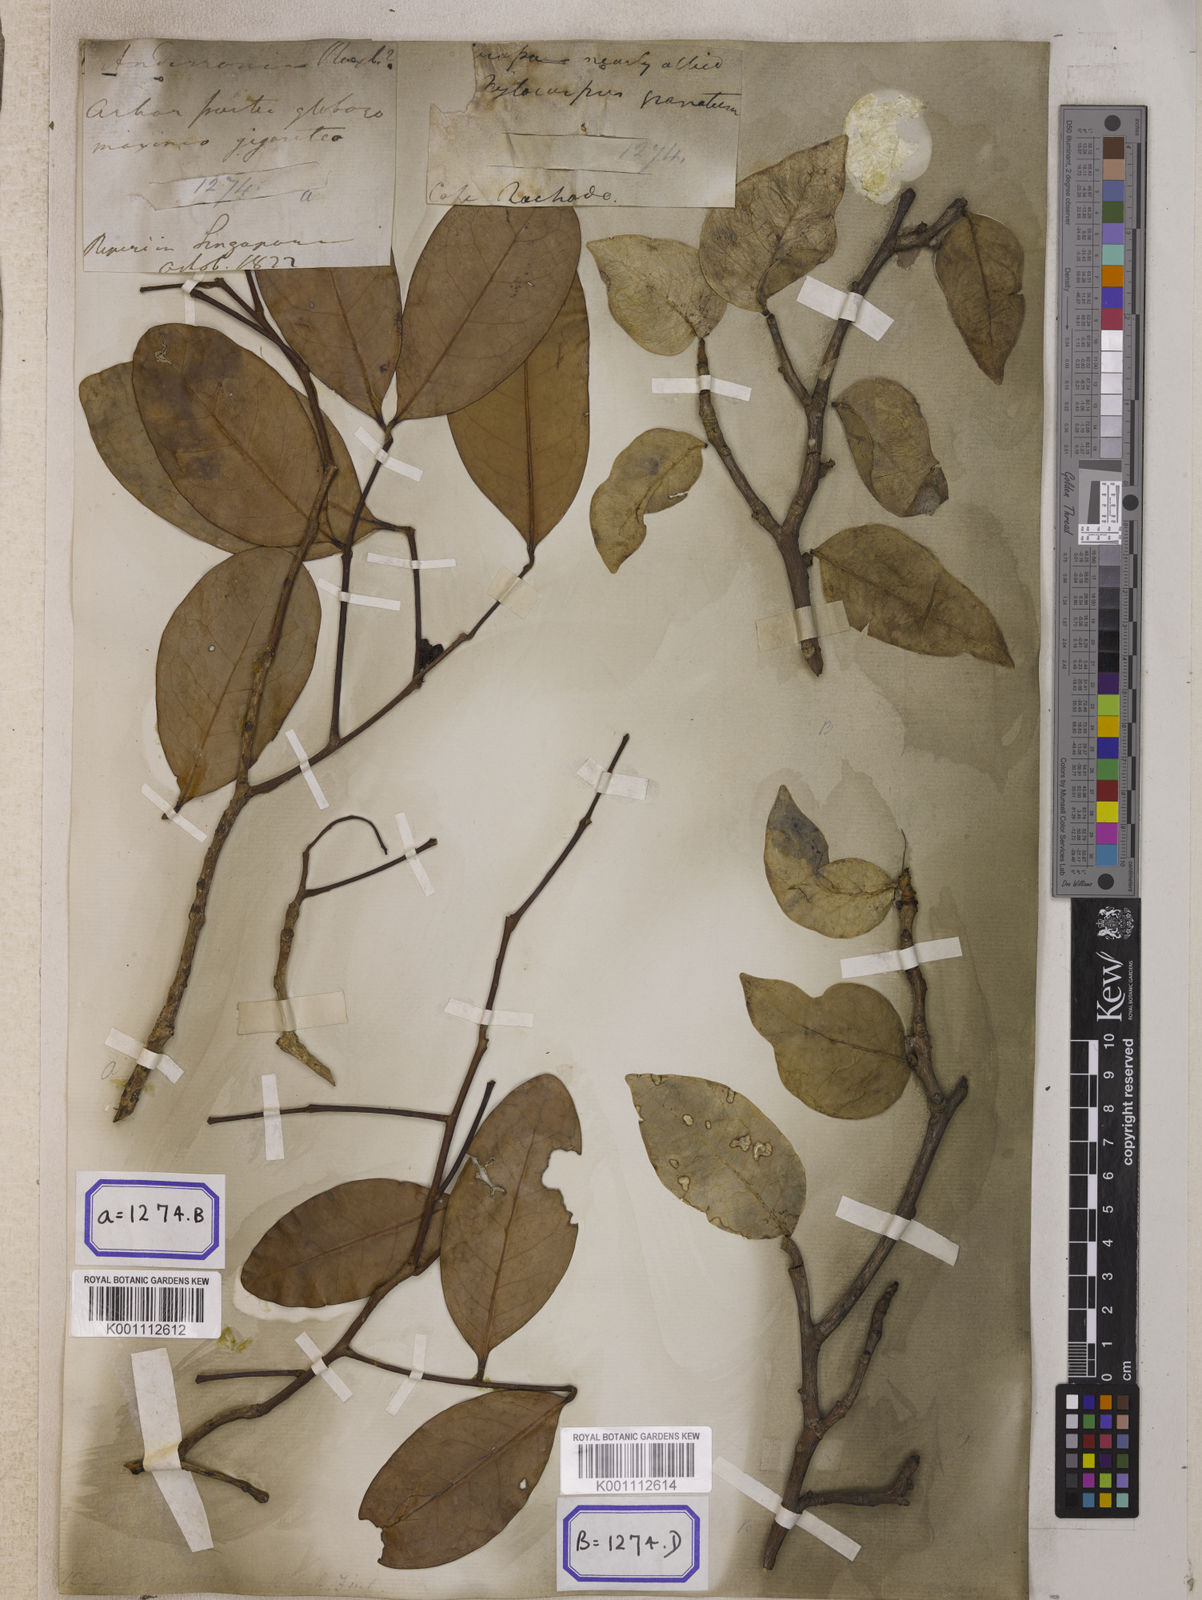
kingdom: Plantae
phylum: Tracheophyta
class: Magnoliopsida
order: Sapindales
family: Meliaceae
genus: Xylocarpus
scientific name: Xylocarpus moluccensis
